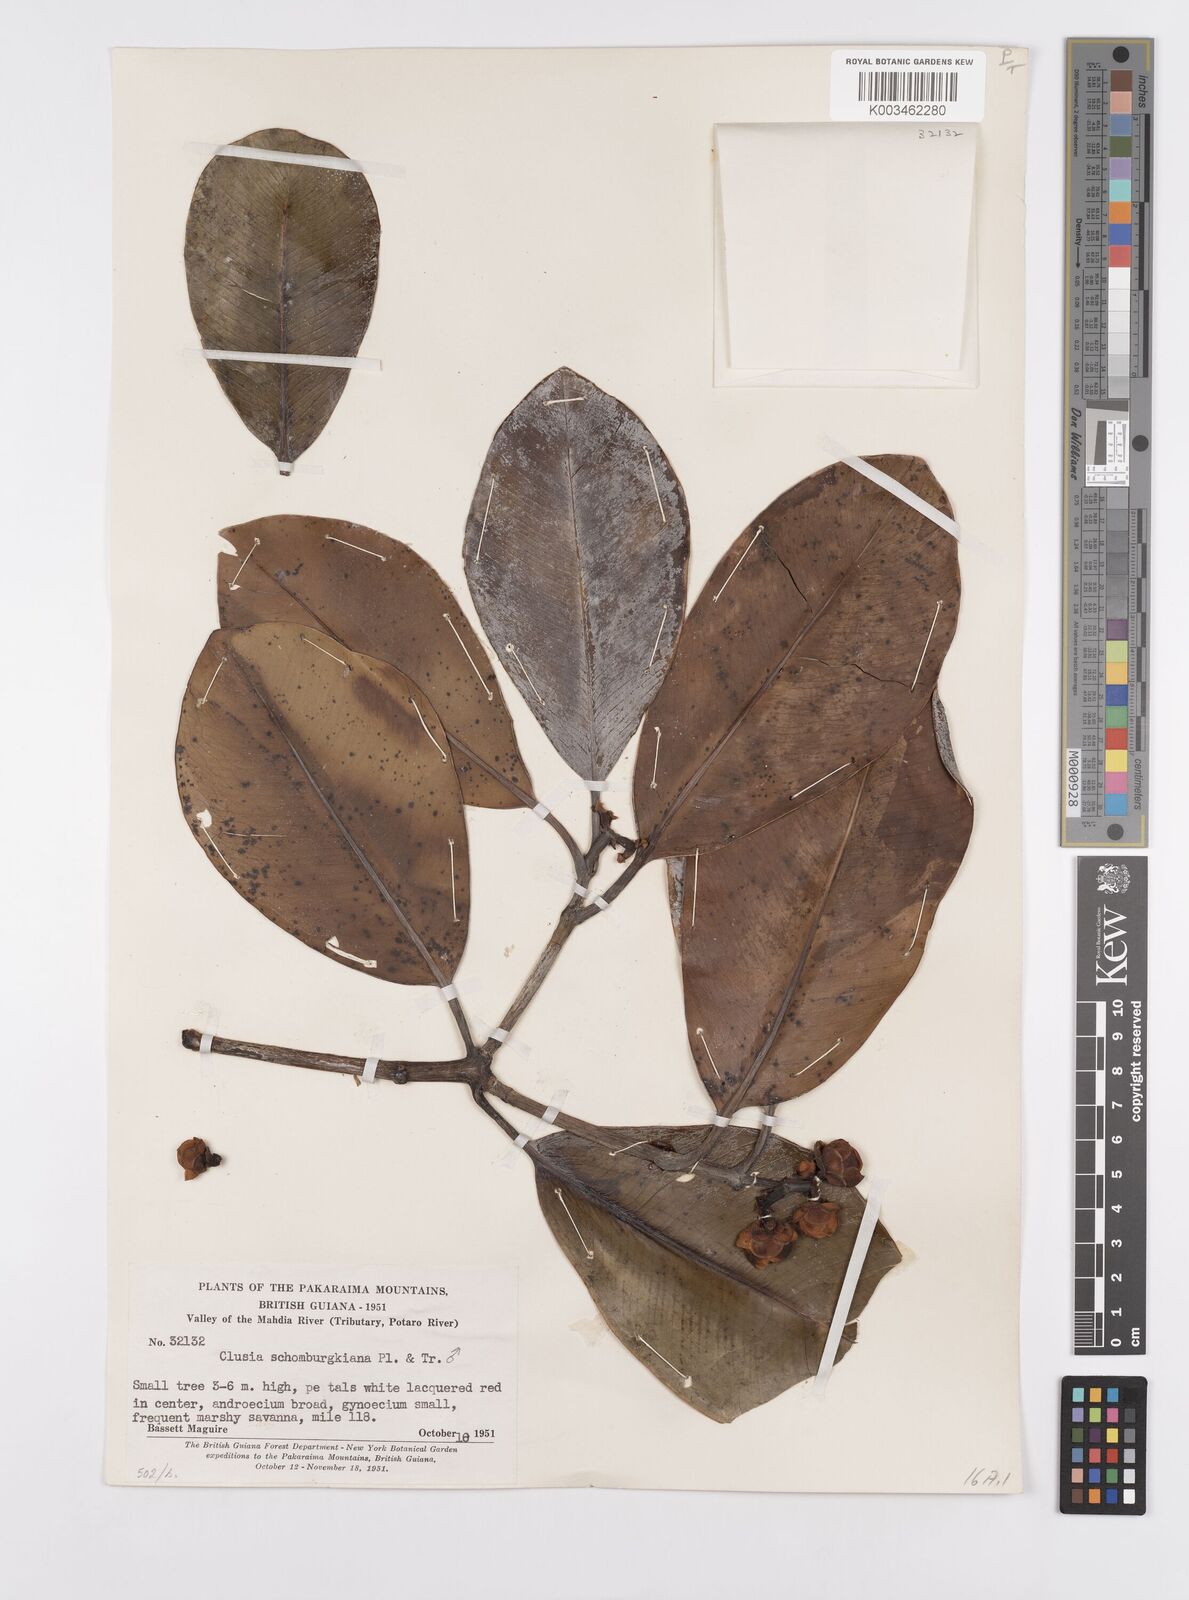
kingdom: Plantae
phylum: Tracheophyta
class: Magnoliopsida
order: Malpighiales
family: Clusiaceae
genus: Clusia
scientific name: Clusia schomburgkiana
